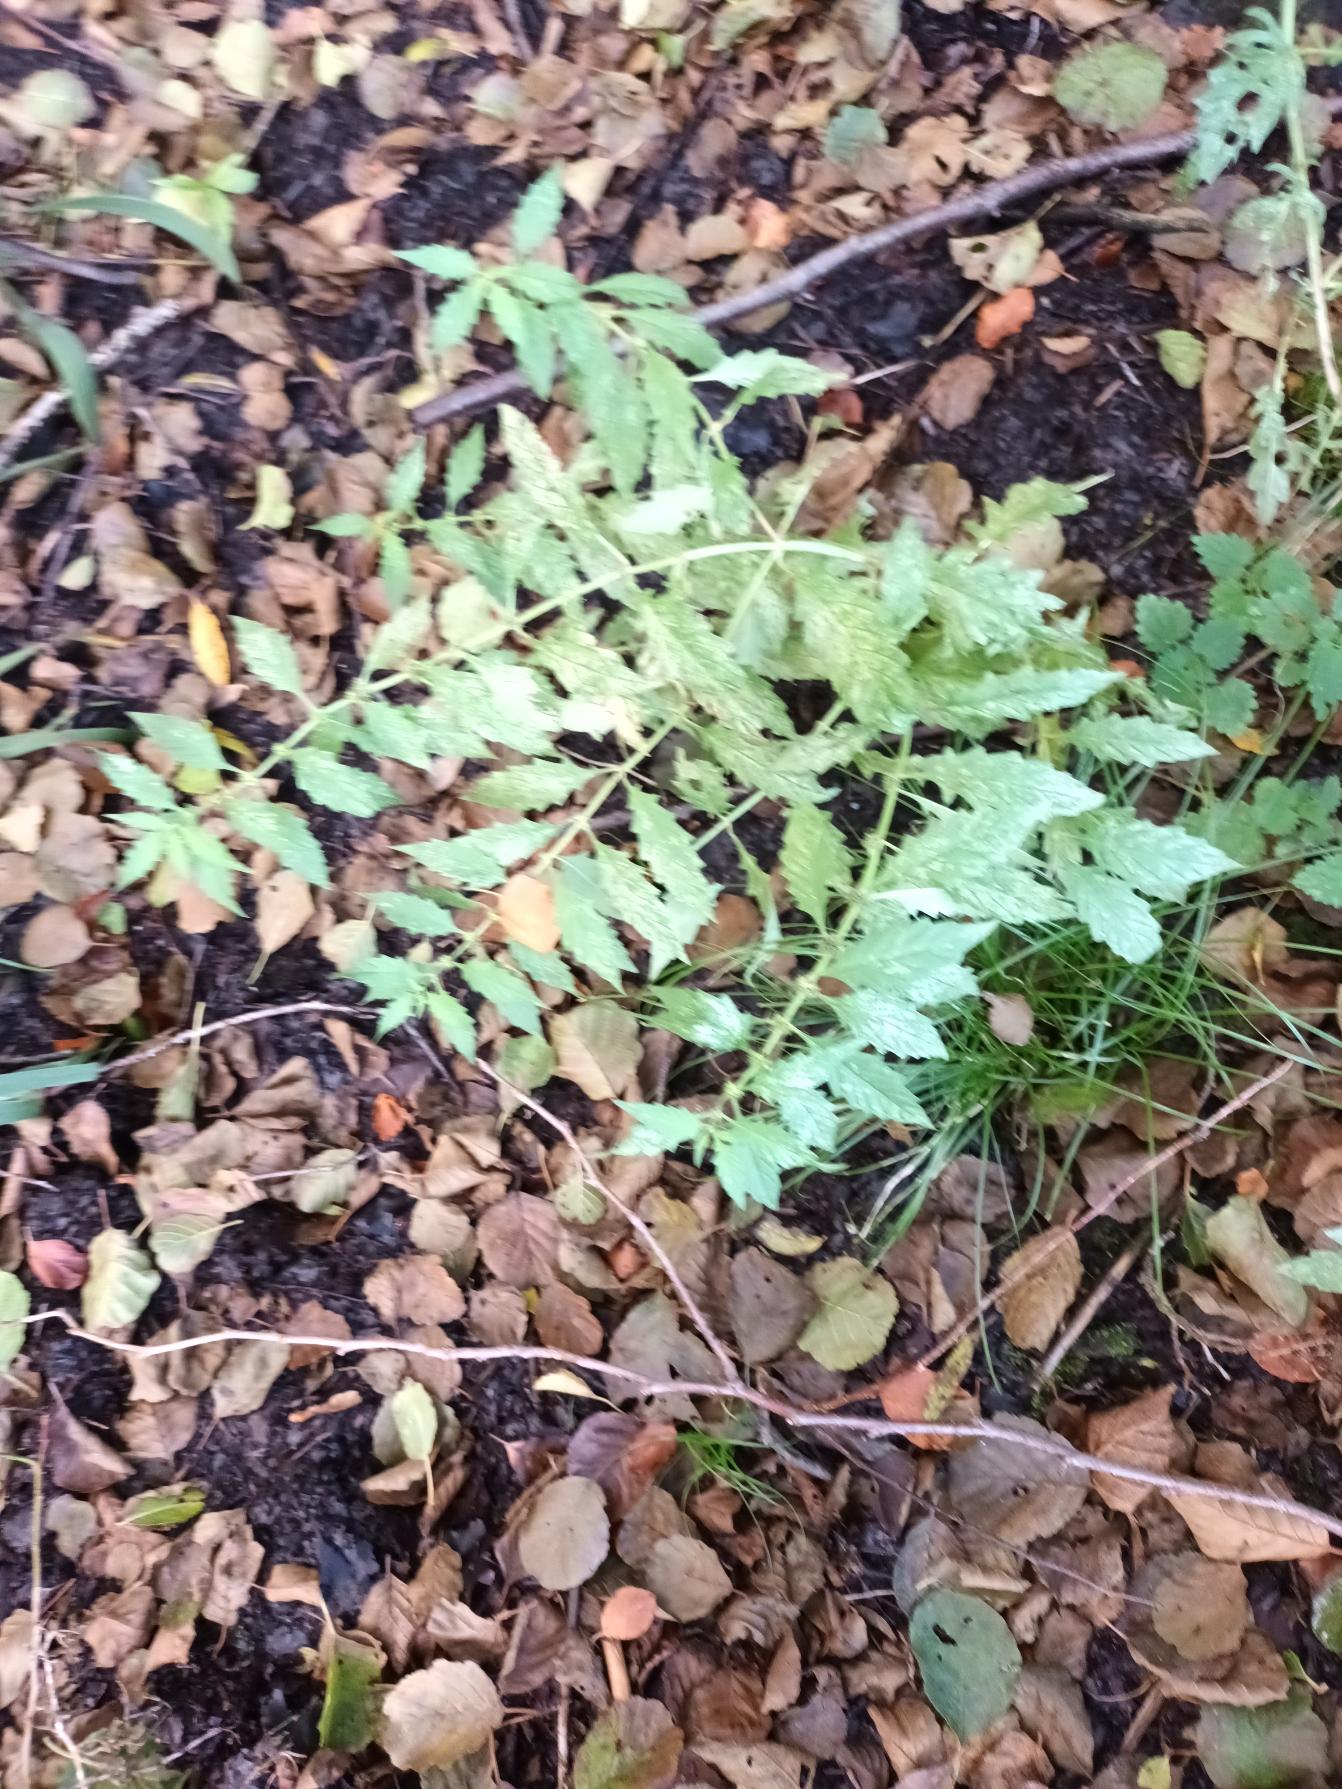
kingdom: Plantae
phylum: Tracheophyta
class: Magnoliopsida
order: Lamiales
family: Lamiaceae
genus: Lycopus
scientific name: Lycopus europaeus
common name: Sværtevæld
